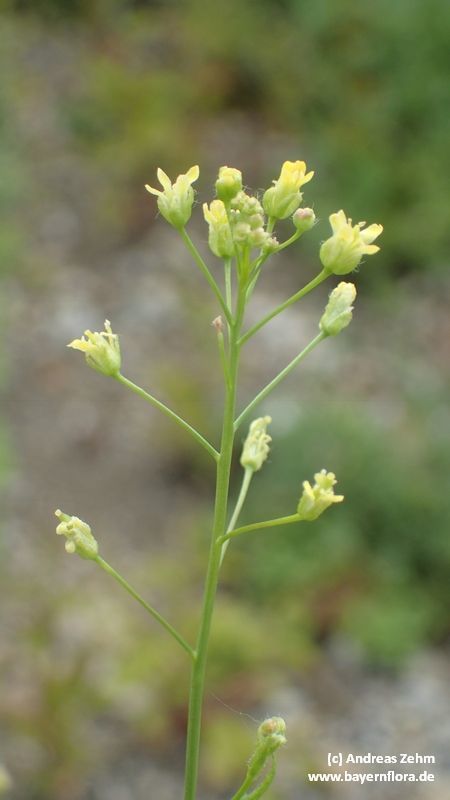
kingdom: Plantae
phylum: Tracheophyta
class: Magnoliopsida
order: Brassicales
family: Brassicaceae
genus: Camelina
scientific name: Camelina sativa
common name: Gold-of-pleasure
